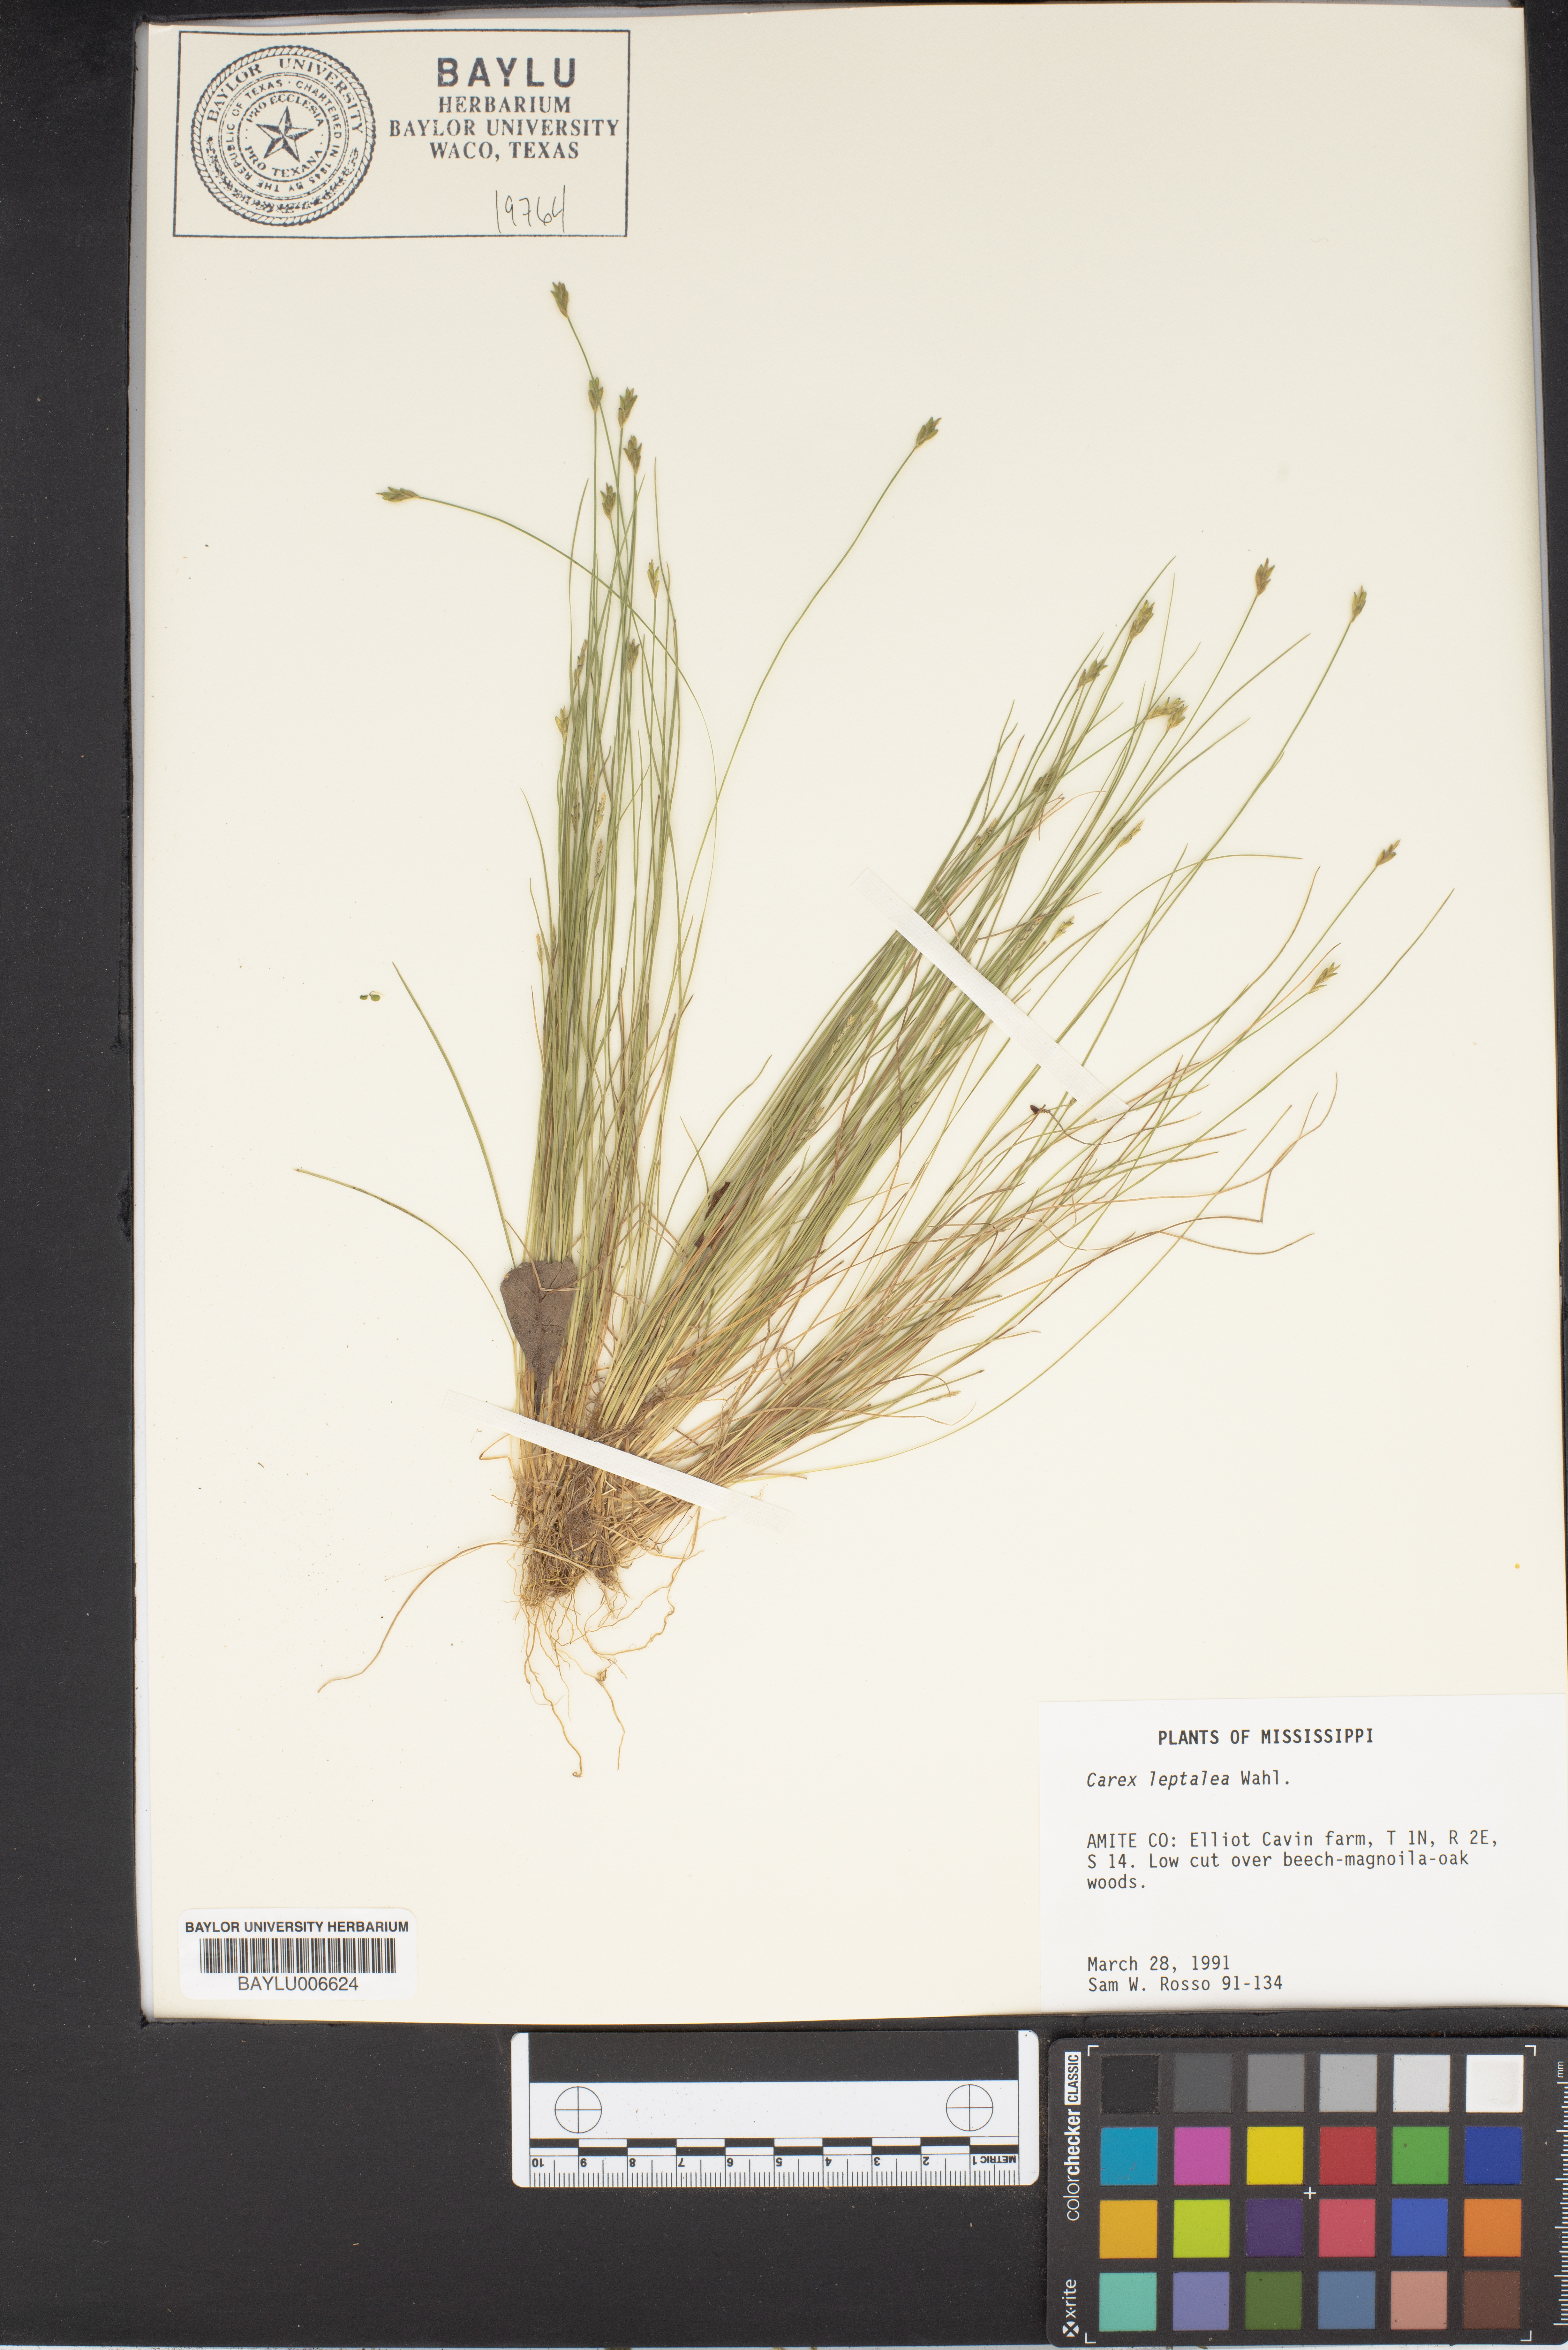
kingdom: Plantae
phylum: Tracheophyta
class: Liliopsida
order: Poales
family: Cyperaceae
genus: Carex
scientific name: Carex leptalea
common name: Bristly-stalked sedge
